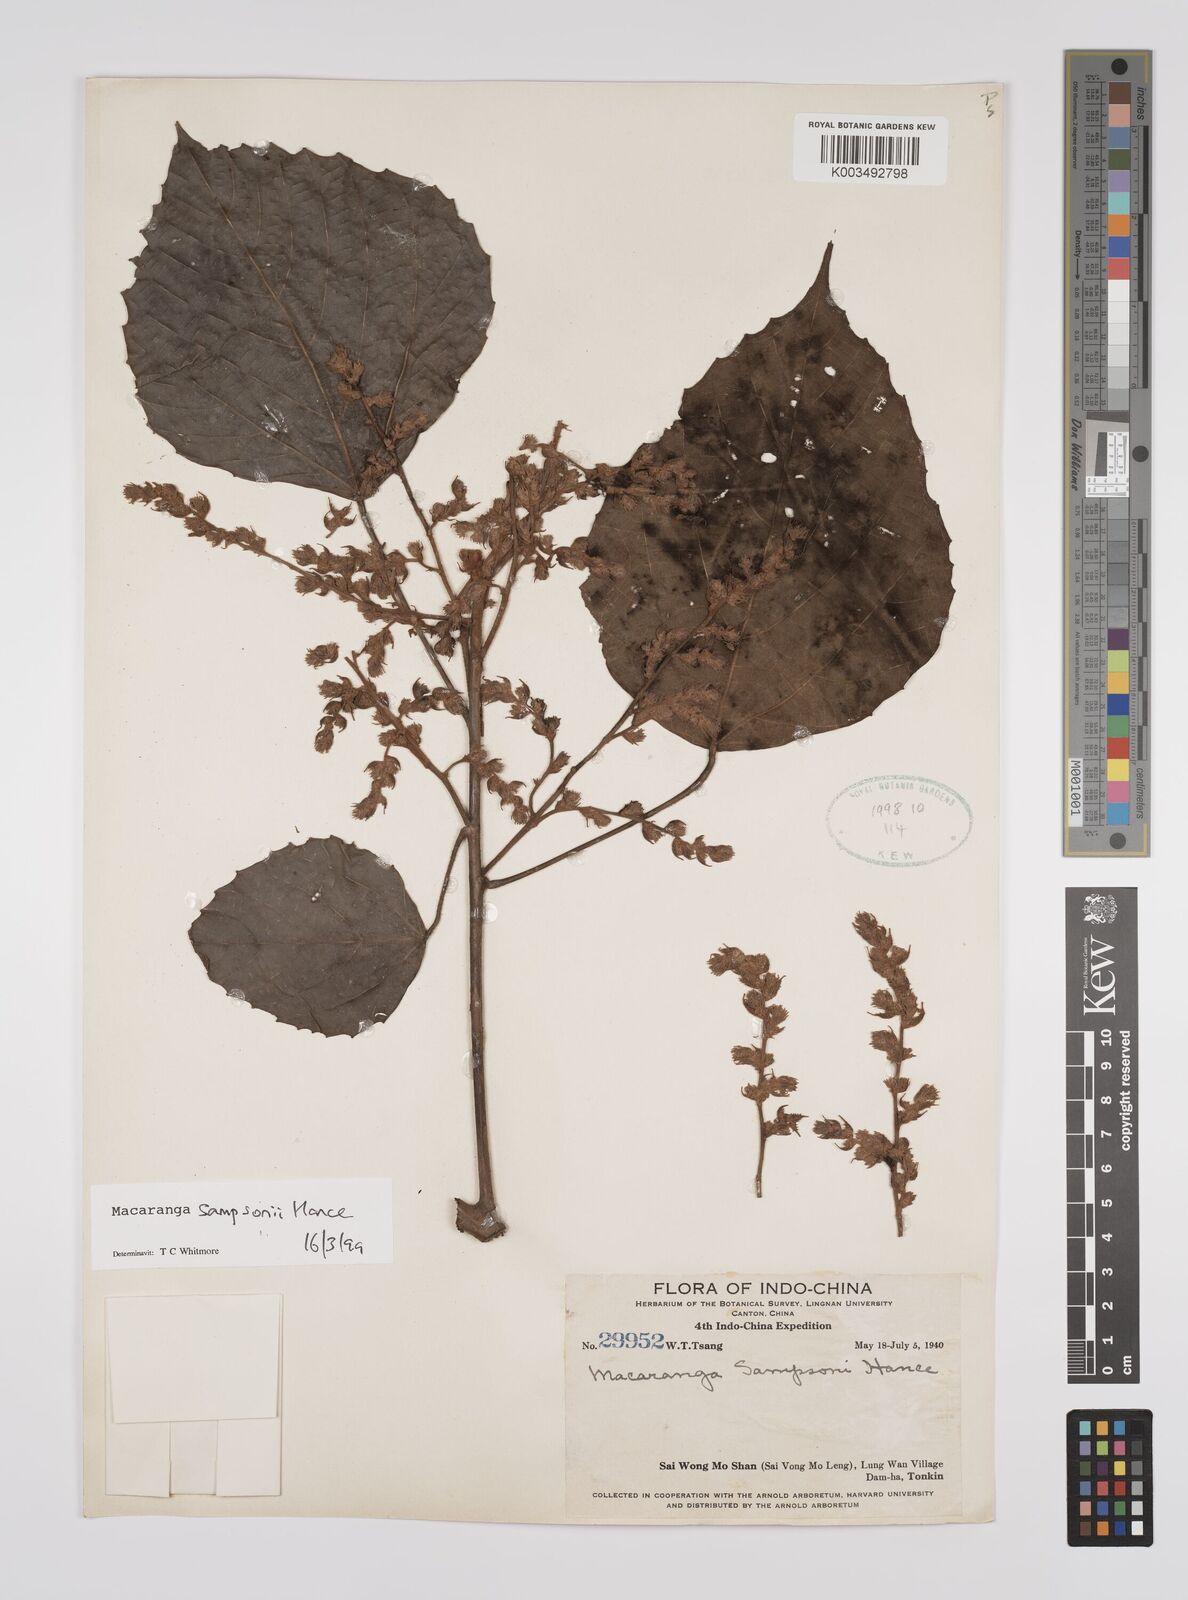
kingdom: Plantae
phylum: Tracheophyta
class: Magnoliopsida
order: Malpighiales
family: Euphorbiaceae
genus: Macaranga
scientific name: Macaranga sampsonii
